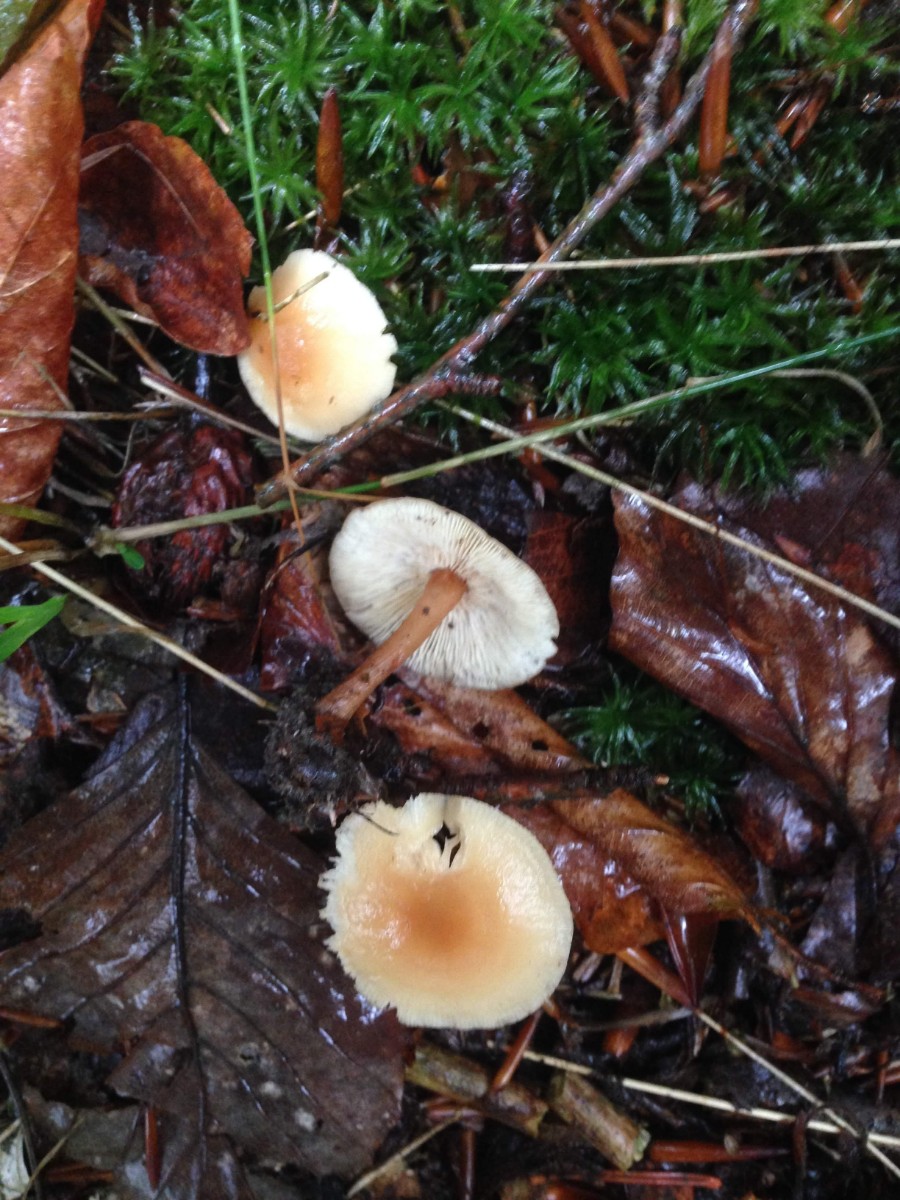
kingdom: Fungi
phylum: Basidiomycota
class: Agaricomycetes
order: Agaricales
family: Omphalotaceae
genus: Gymnopus
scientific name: Gymnopus dryophilus
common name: løv-fladhat
